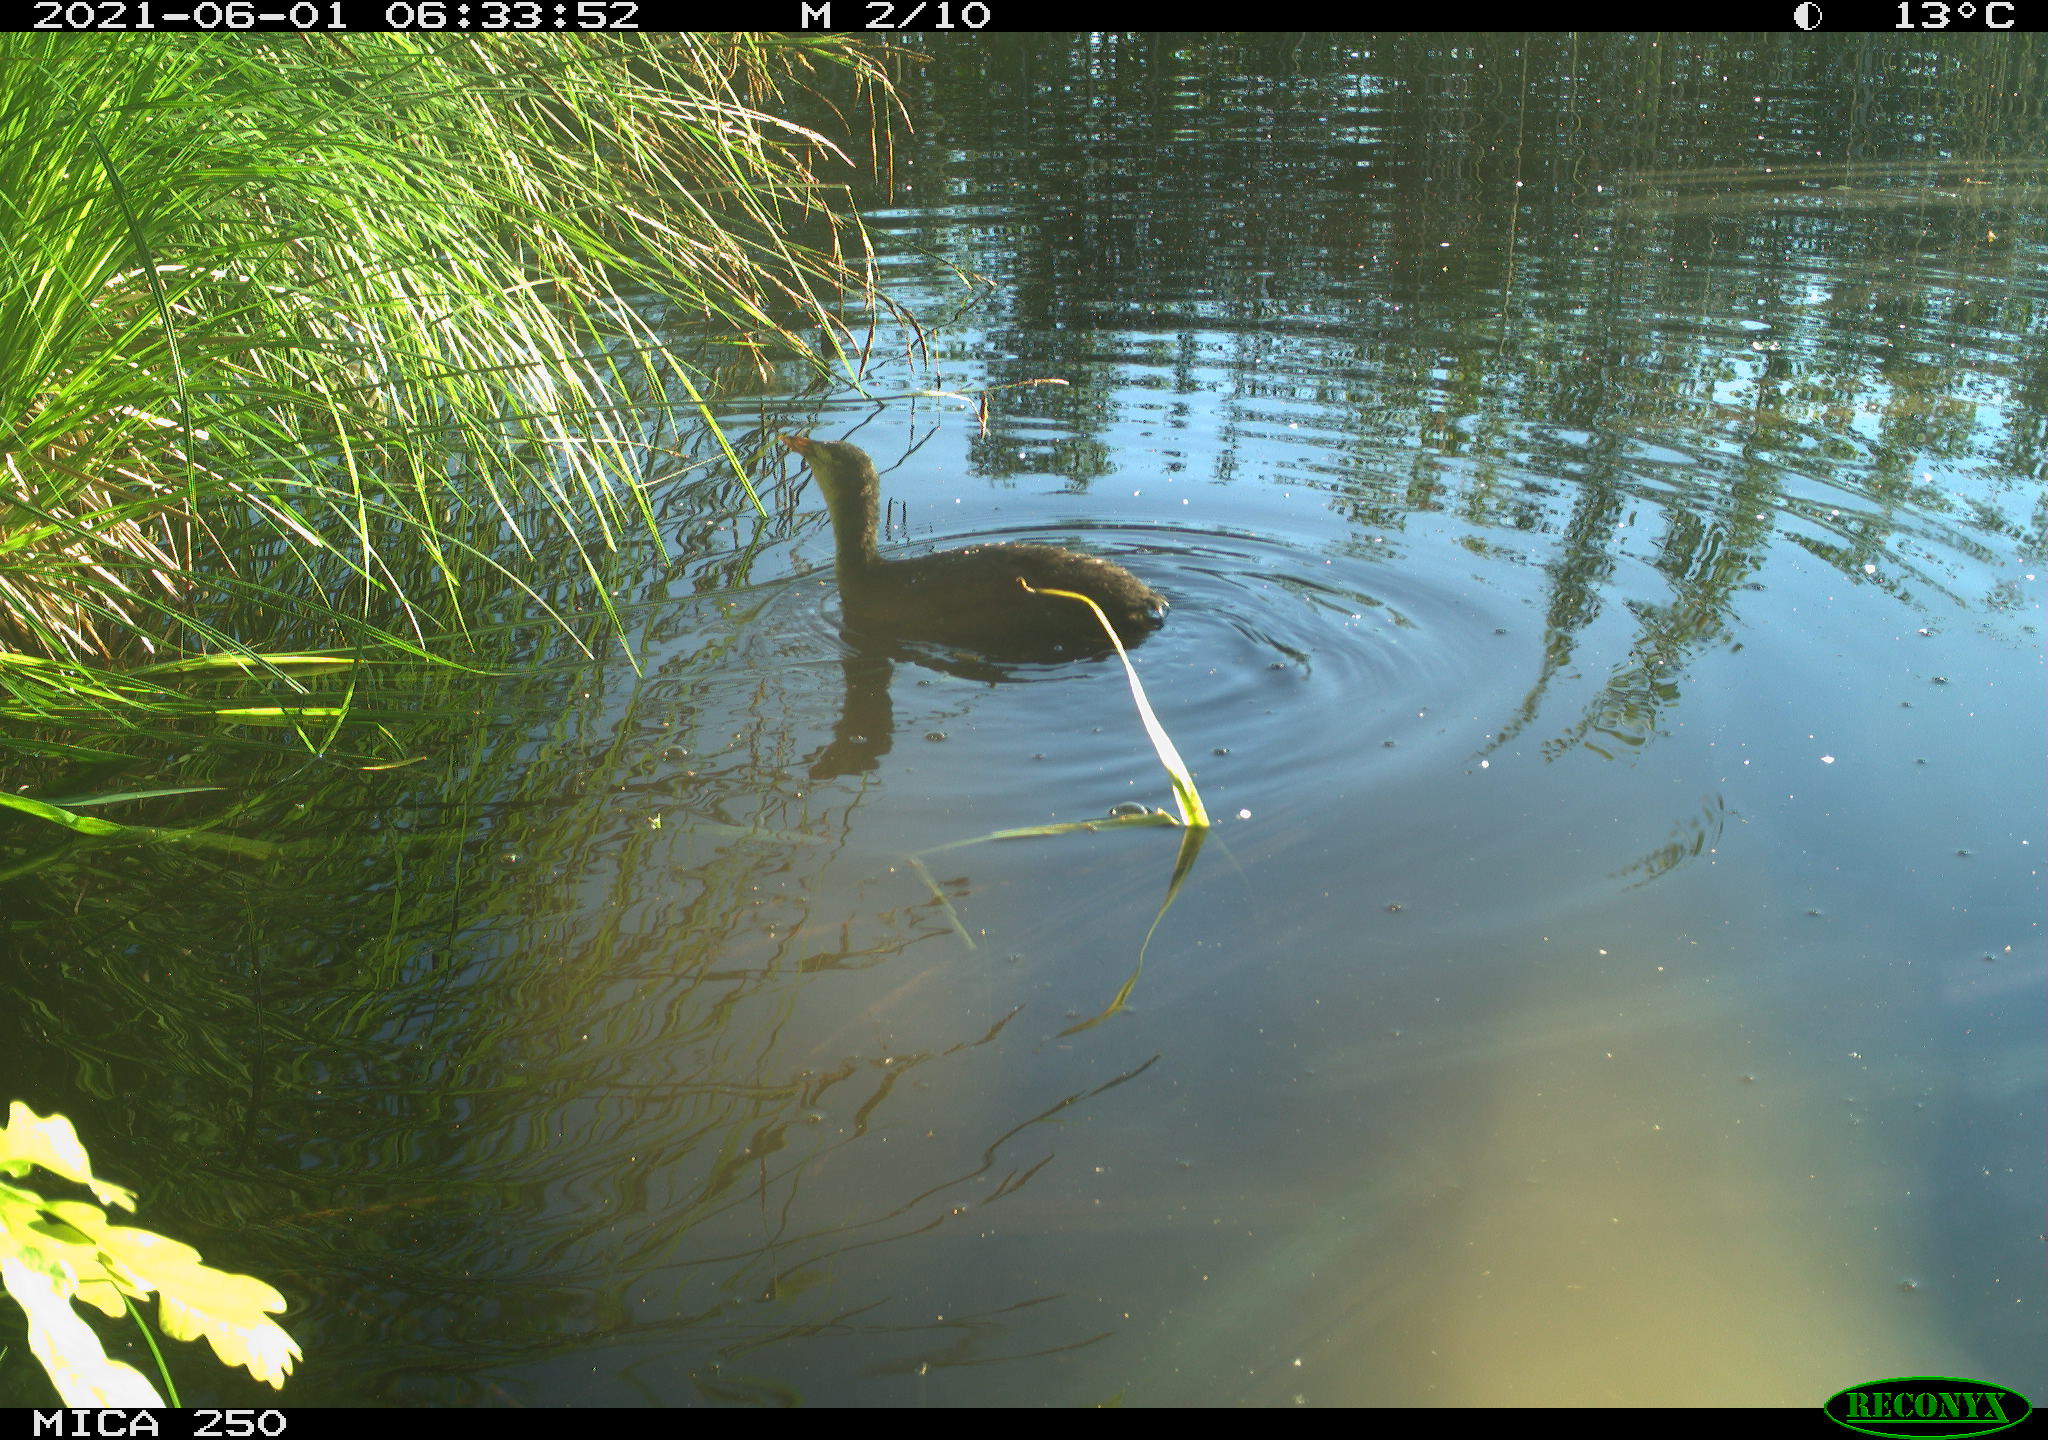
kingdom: Animalia
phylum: Chordata
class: Aves
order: Gruiformes
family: Rallidae
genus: Gallinula
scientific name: Gallinula chloropus
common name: Common moorhen
